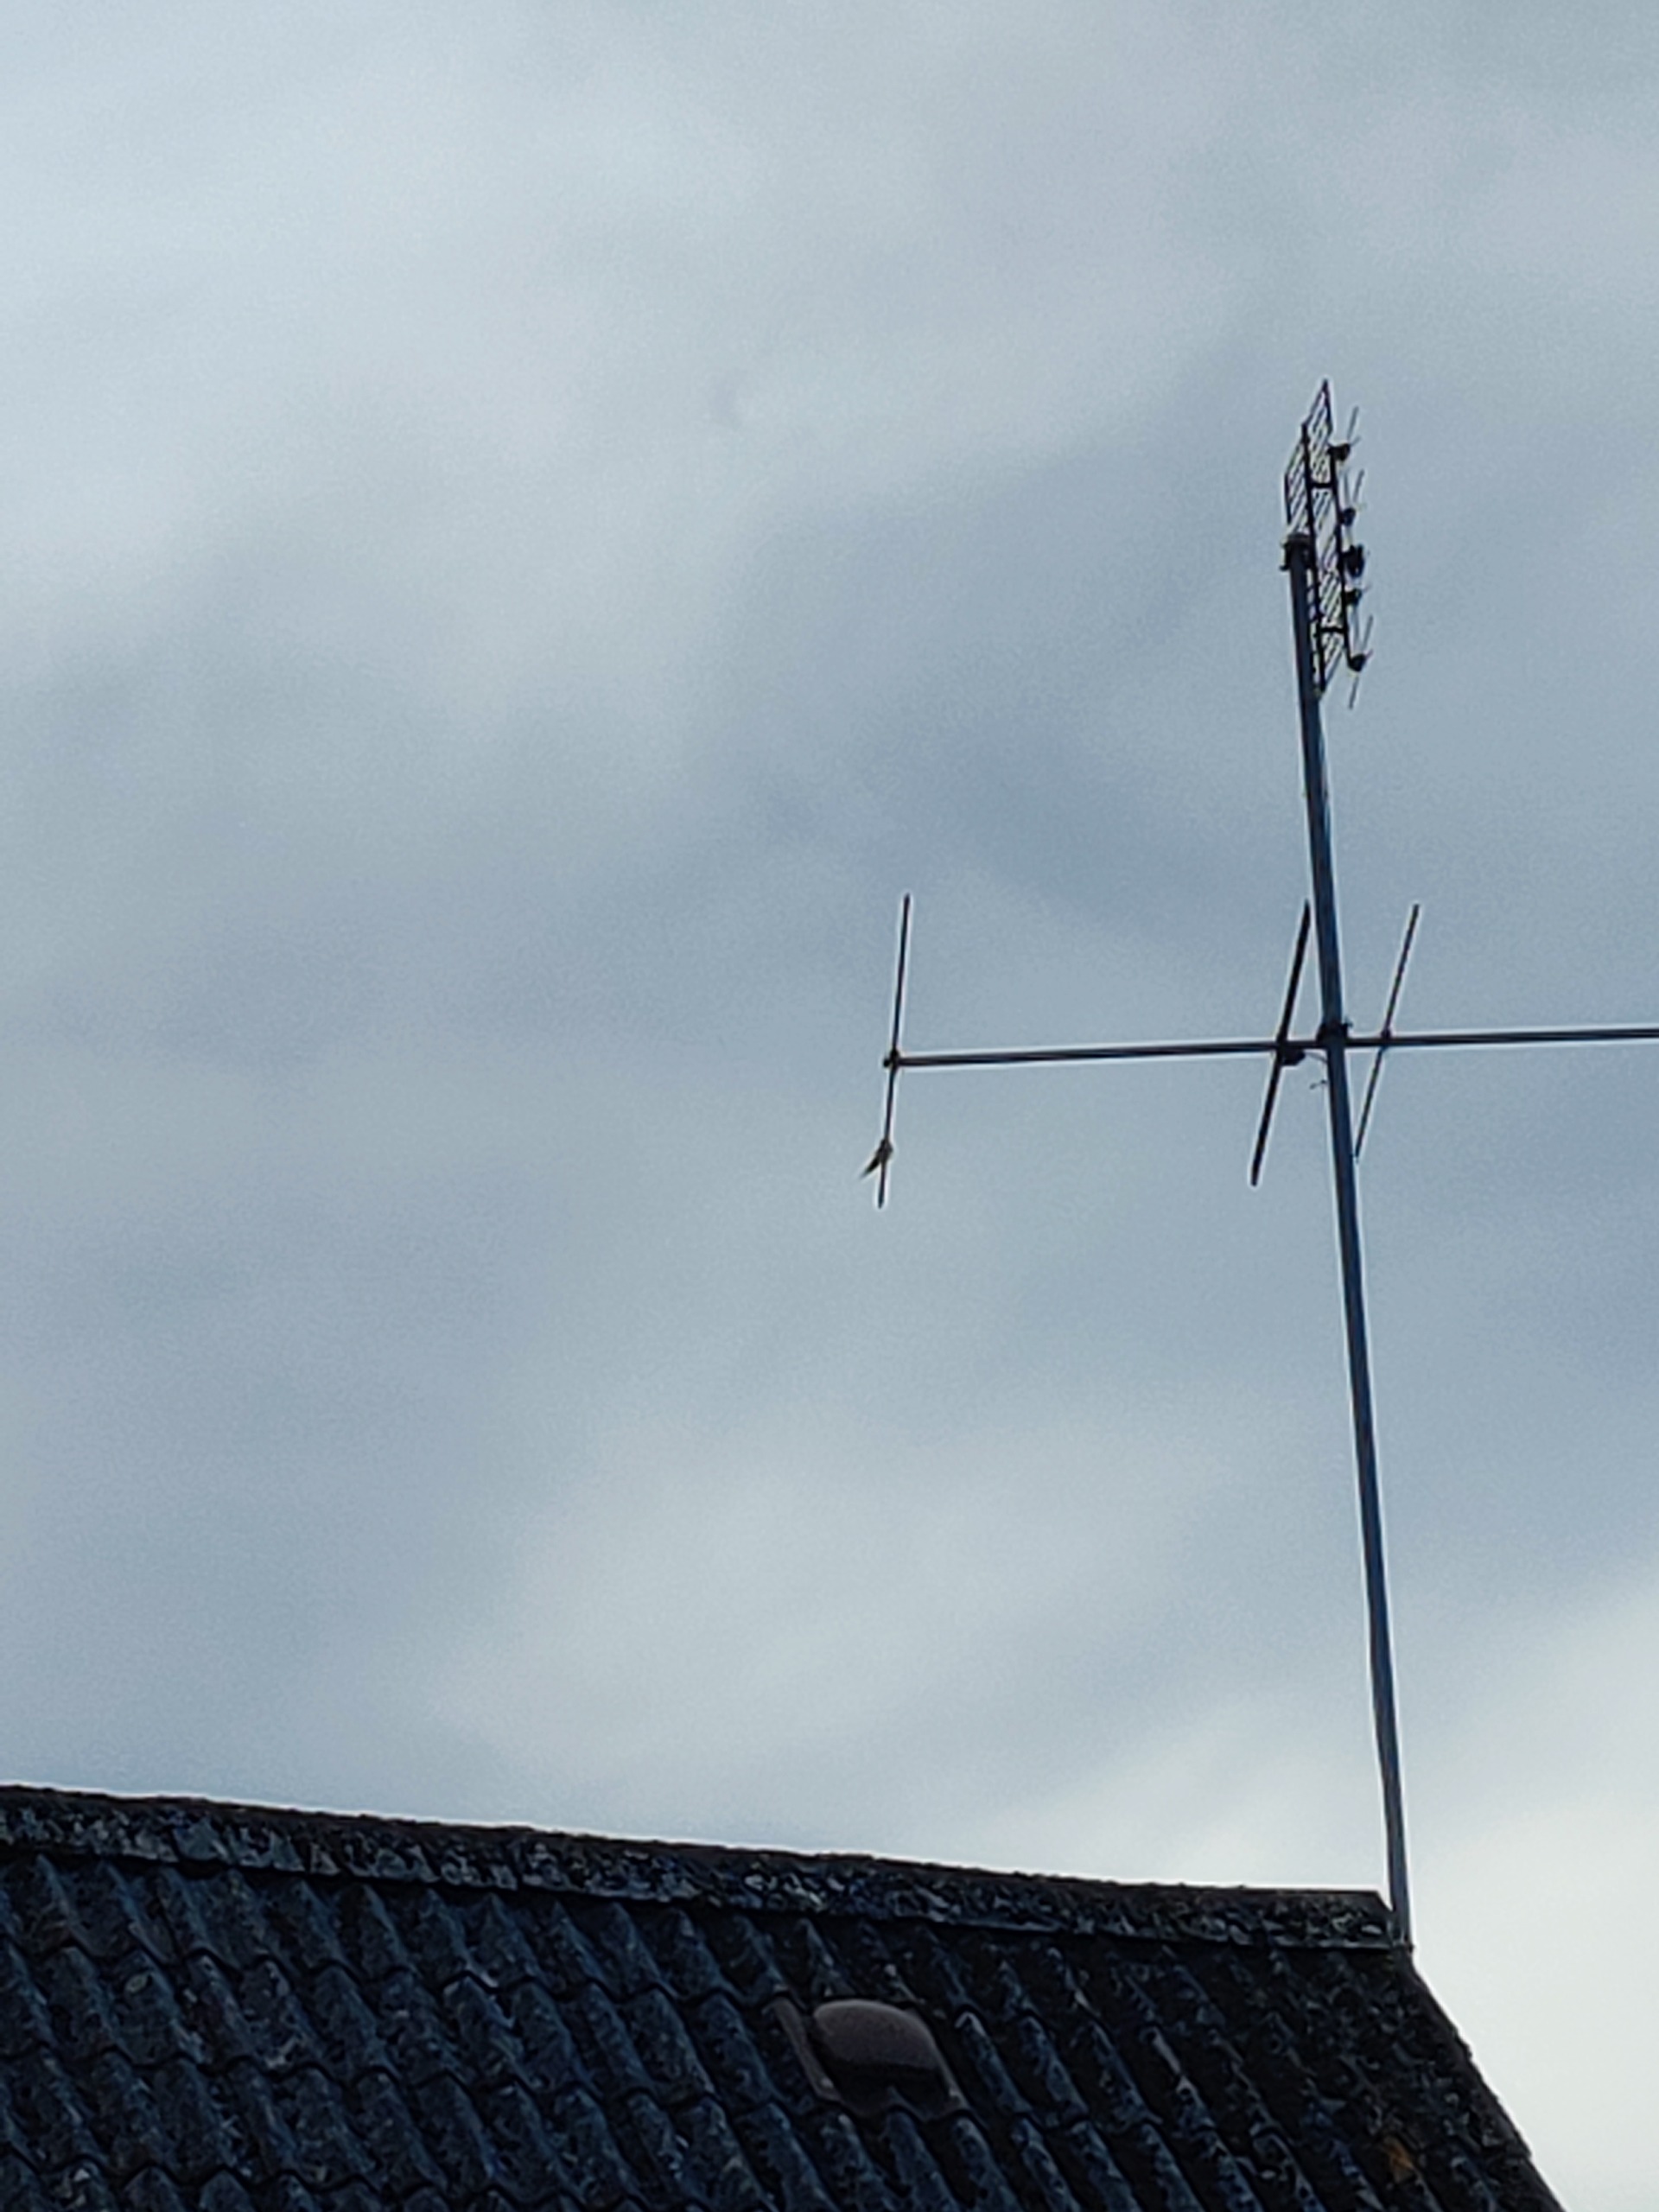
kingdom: Animalia
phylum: Chordata
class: Aves
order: Passeriformes
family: Hirundinidae
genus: Hirundo
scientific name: Hirundo rustica
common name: Landsvale
